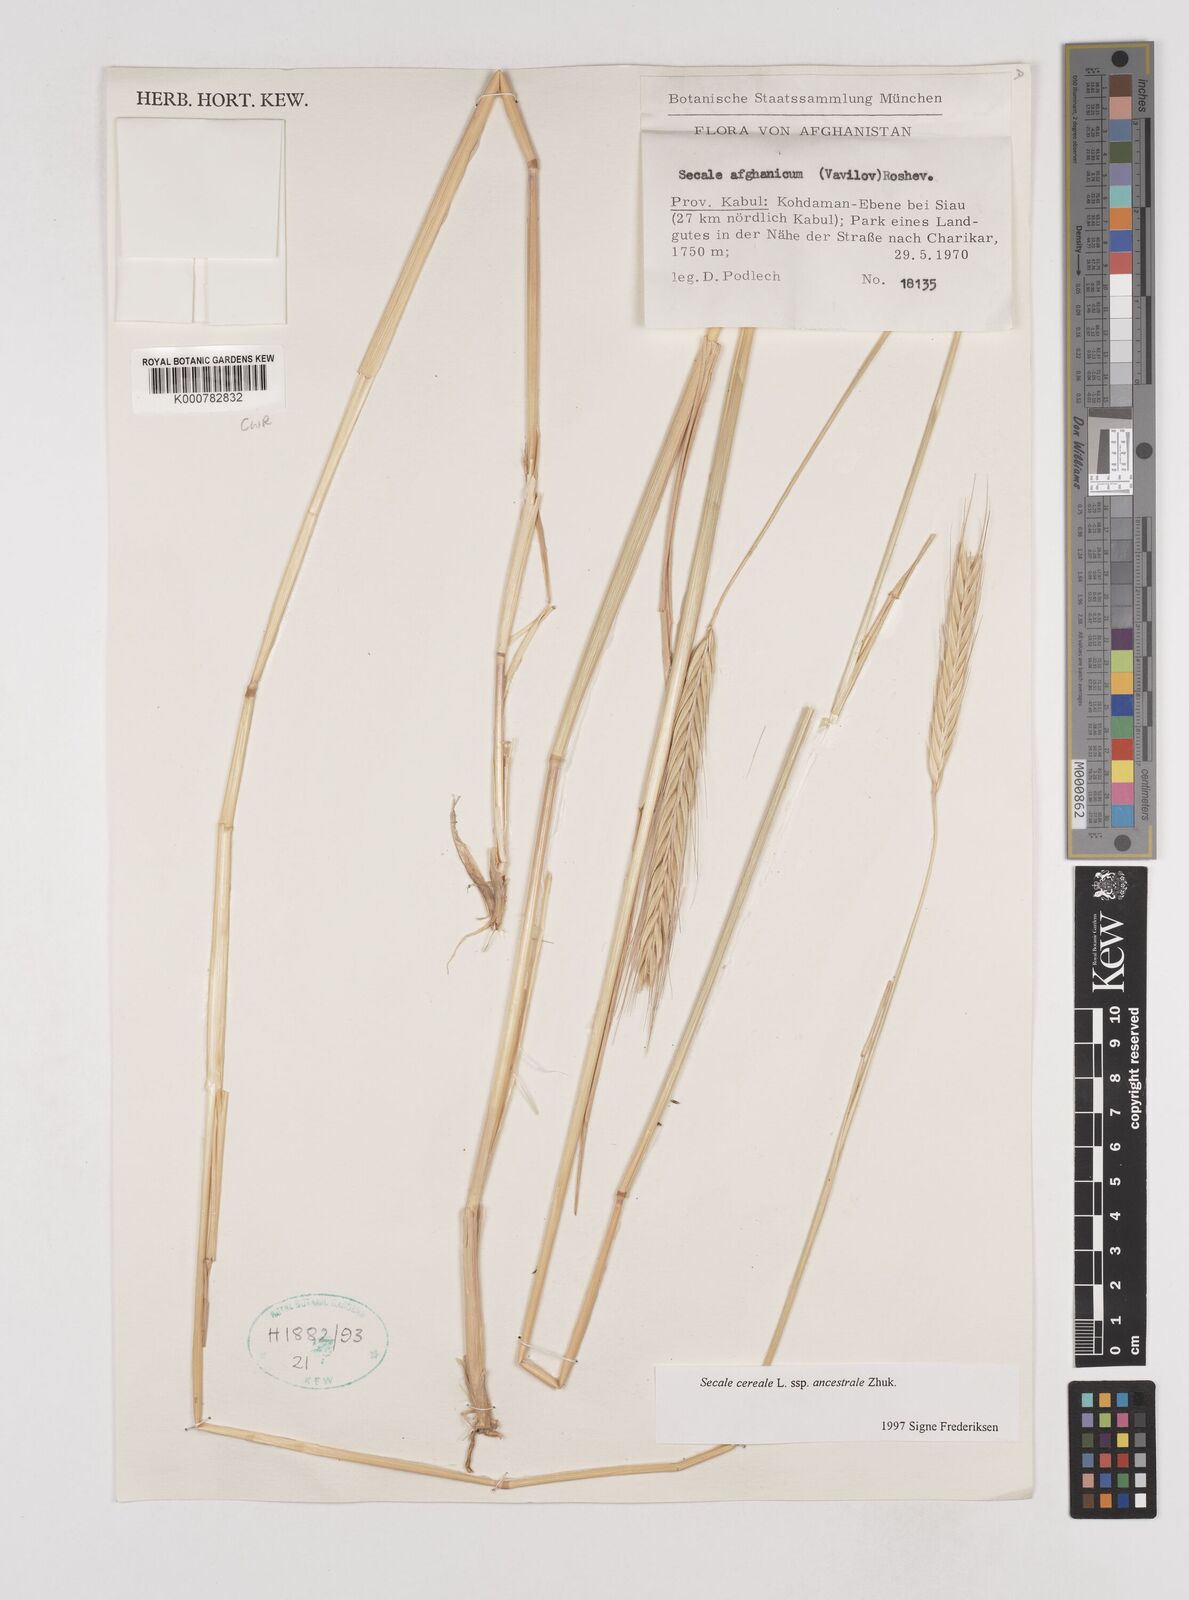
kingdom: Plantae
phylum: Tracheophyta
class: Liliopsida
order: Poales
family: Poaceae
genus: Secale
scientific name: Secale cereale
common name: Rye
